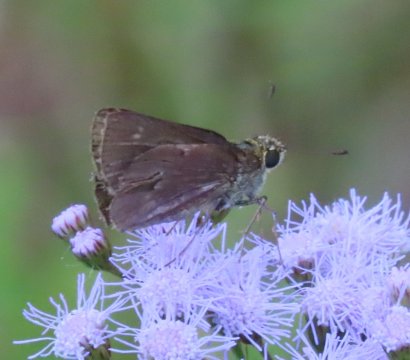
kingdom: Animalia
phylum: Arthropoda
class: Insecta
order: Lepidoptera
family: Hesperiidae
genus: Vernia
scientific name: Vernia verna
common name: Little Glassywing
